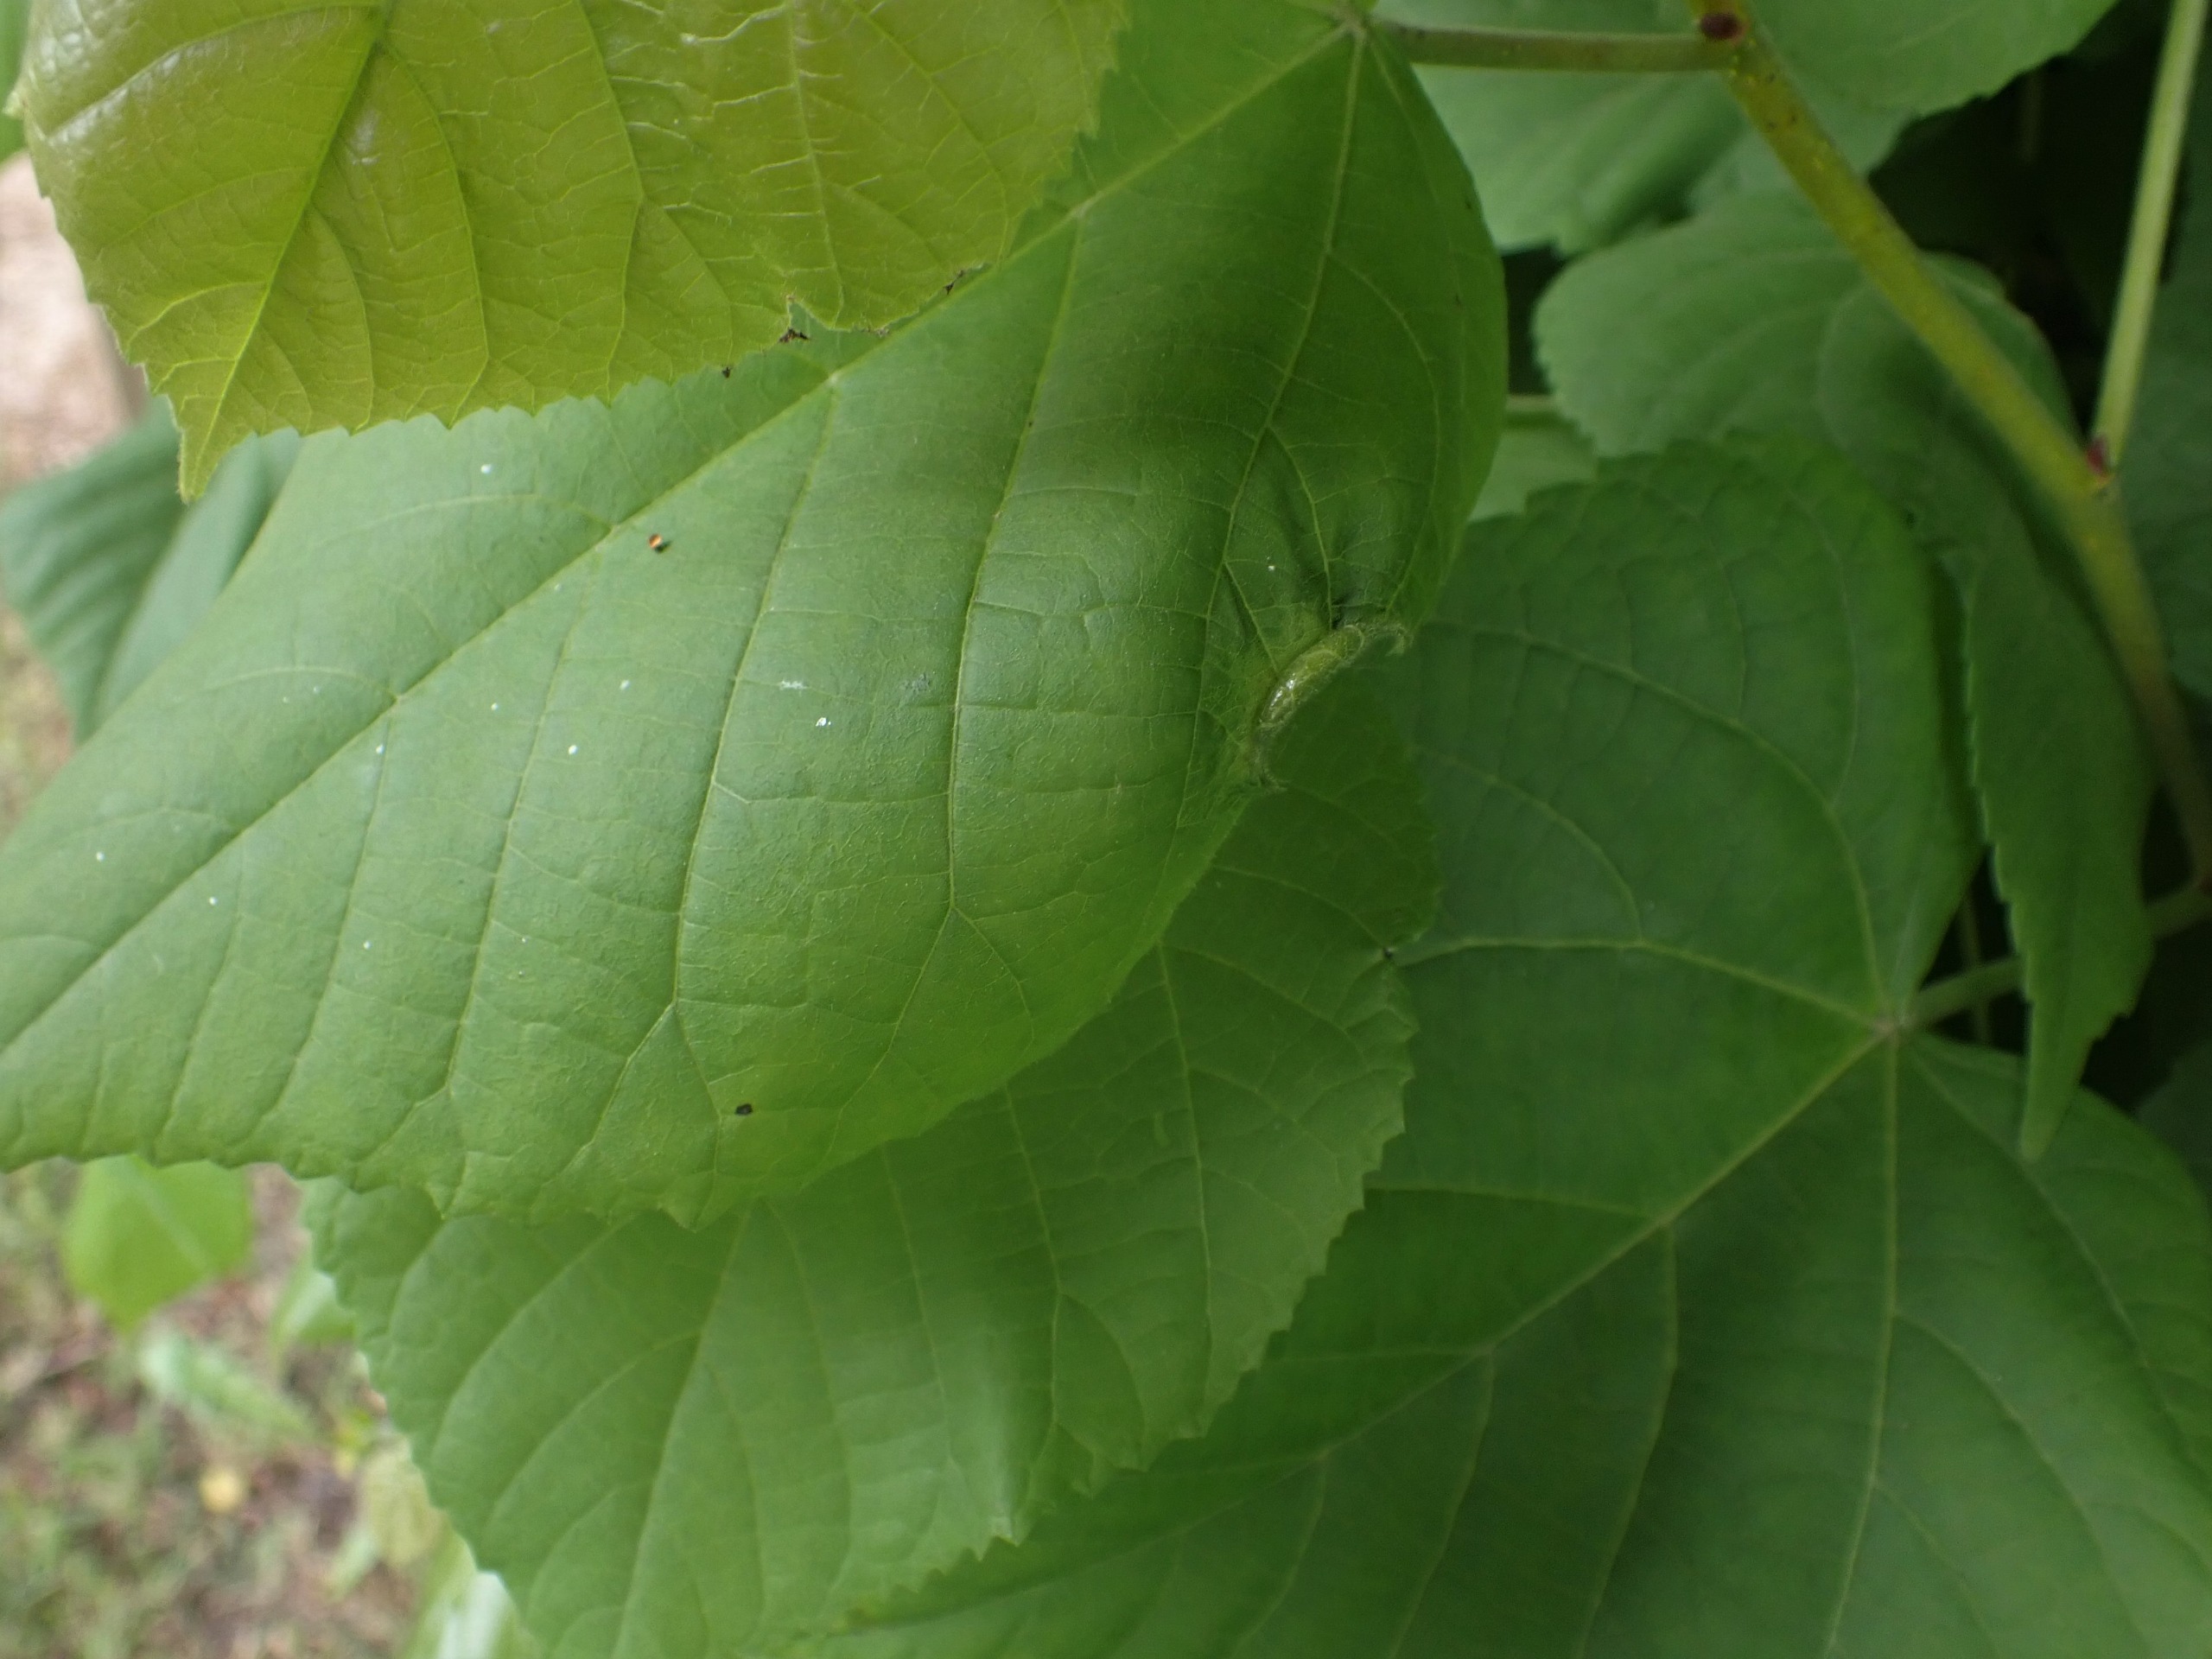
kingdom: Animalia
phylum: Arthropoda
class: Insecta
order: Diptera
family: Cecidomyiidae
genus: Dasineura
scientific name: Dasineura tiliae
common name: Linderullegalmyg
